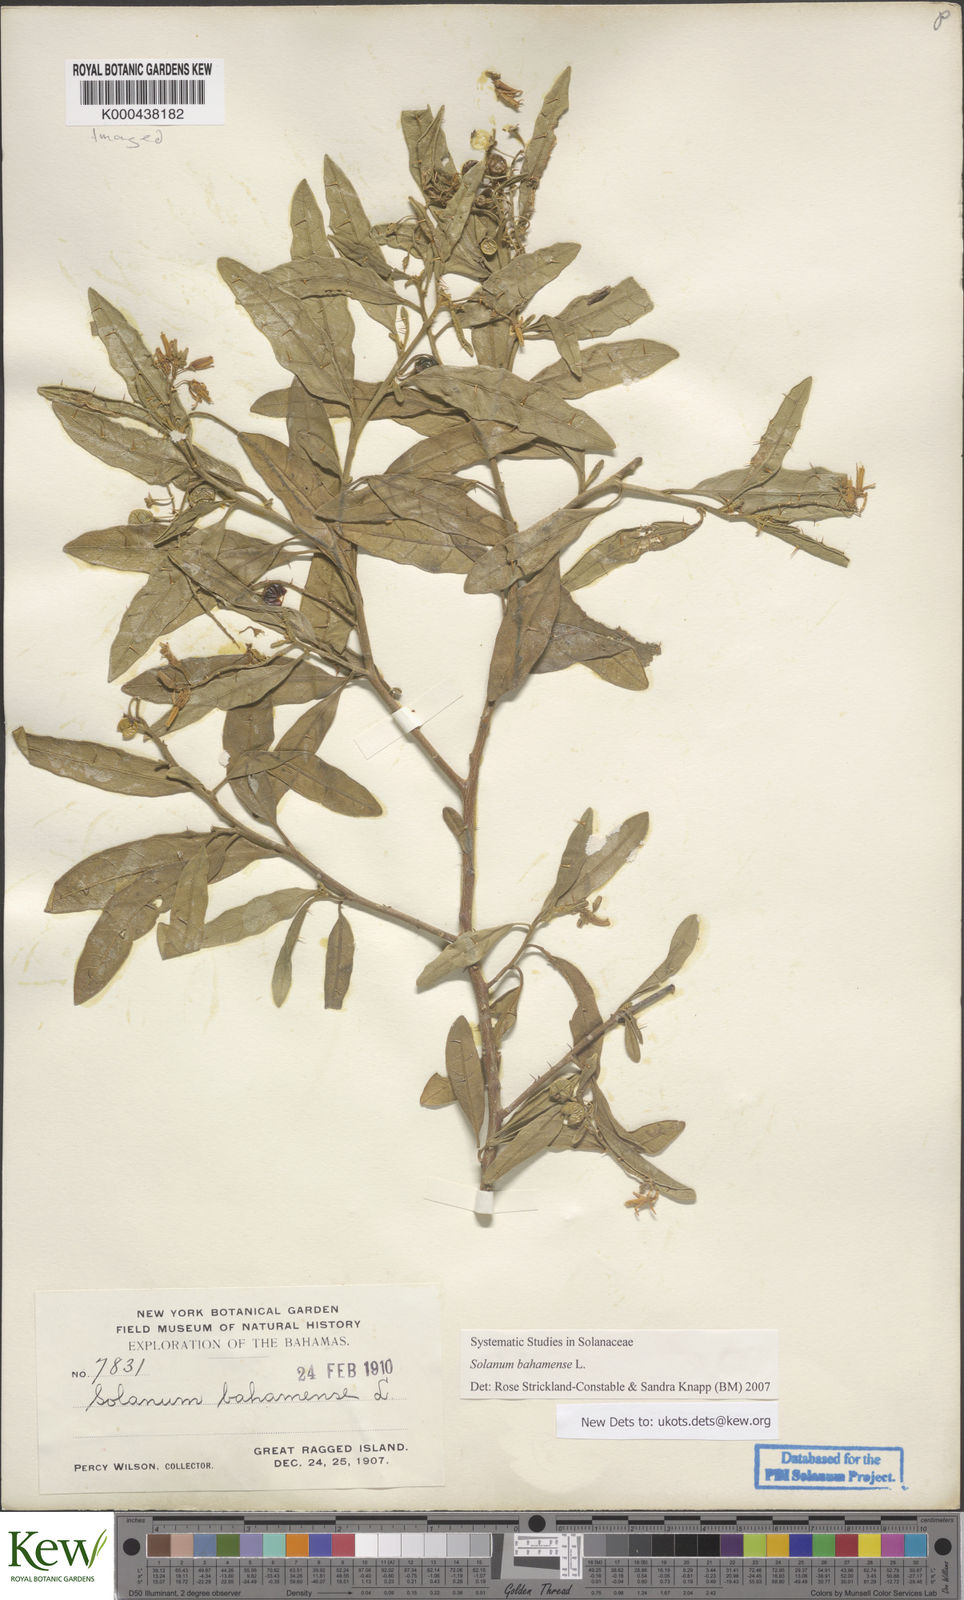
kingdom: Plantae
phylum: Tracheophyta
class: Magnoliopsida
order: Solanales
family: Solanaceae
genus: Solanum
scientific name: Solanum bahamense
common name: Canker-berry
